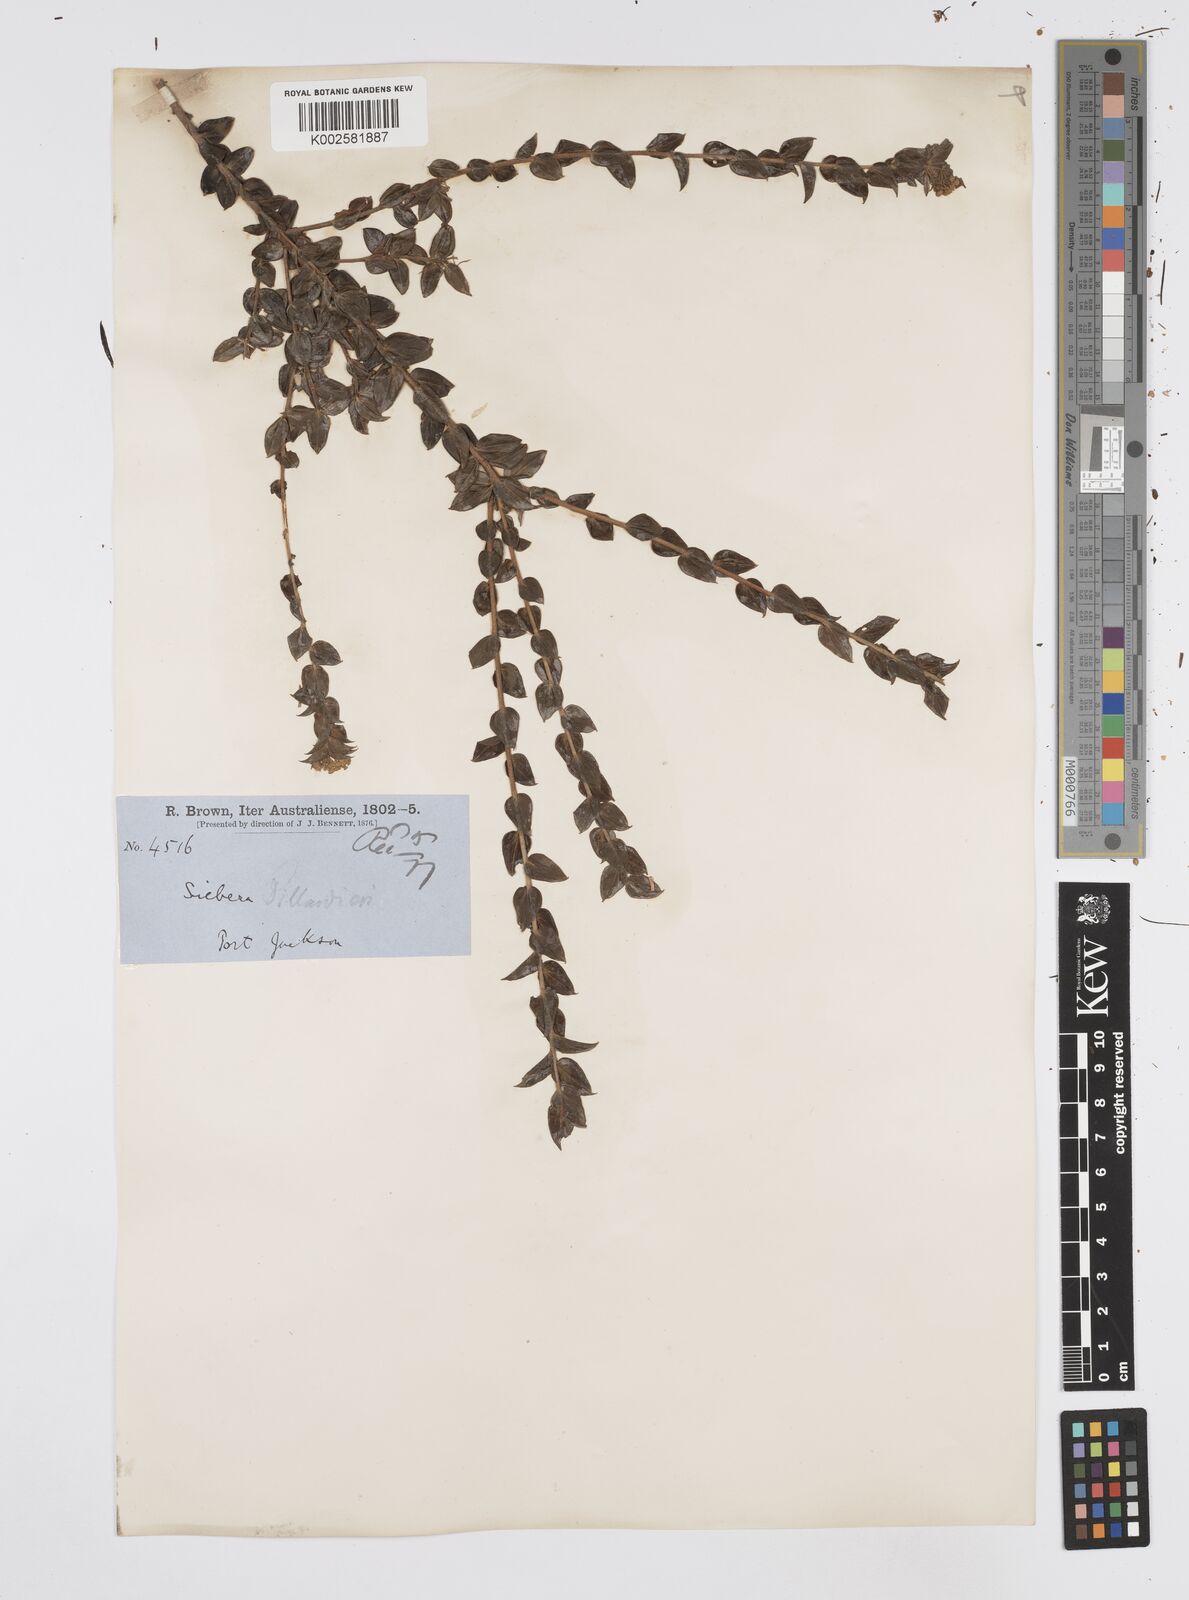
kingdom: Plantae
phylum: Tracheophyta
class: Magnoliopsida
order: Apiales
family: Apiaceae
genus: Platysace
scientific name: Platysace lanceolata
